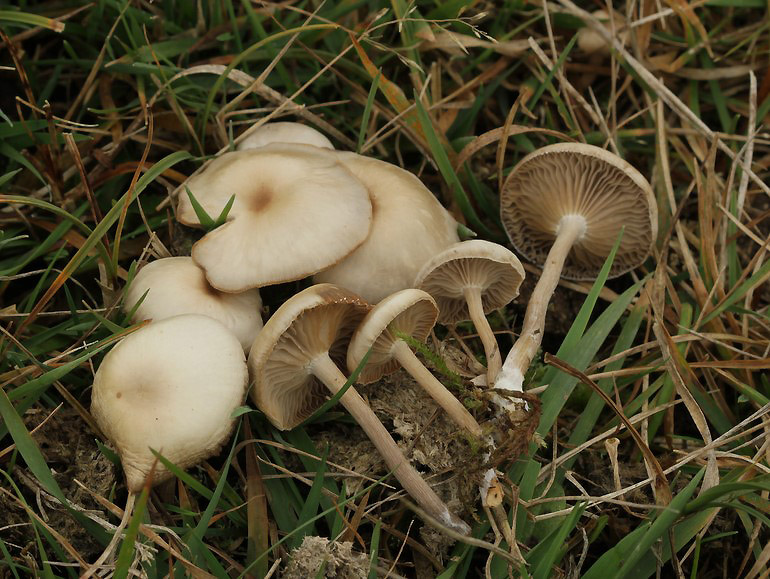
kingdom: Fungi
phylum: Basidiomycota
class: Agaricomycetes
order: Agaricales
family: Tricholomataceae
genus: Clitocybe
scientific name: Clitocybe amarescens
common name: gødnings-tragthat
